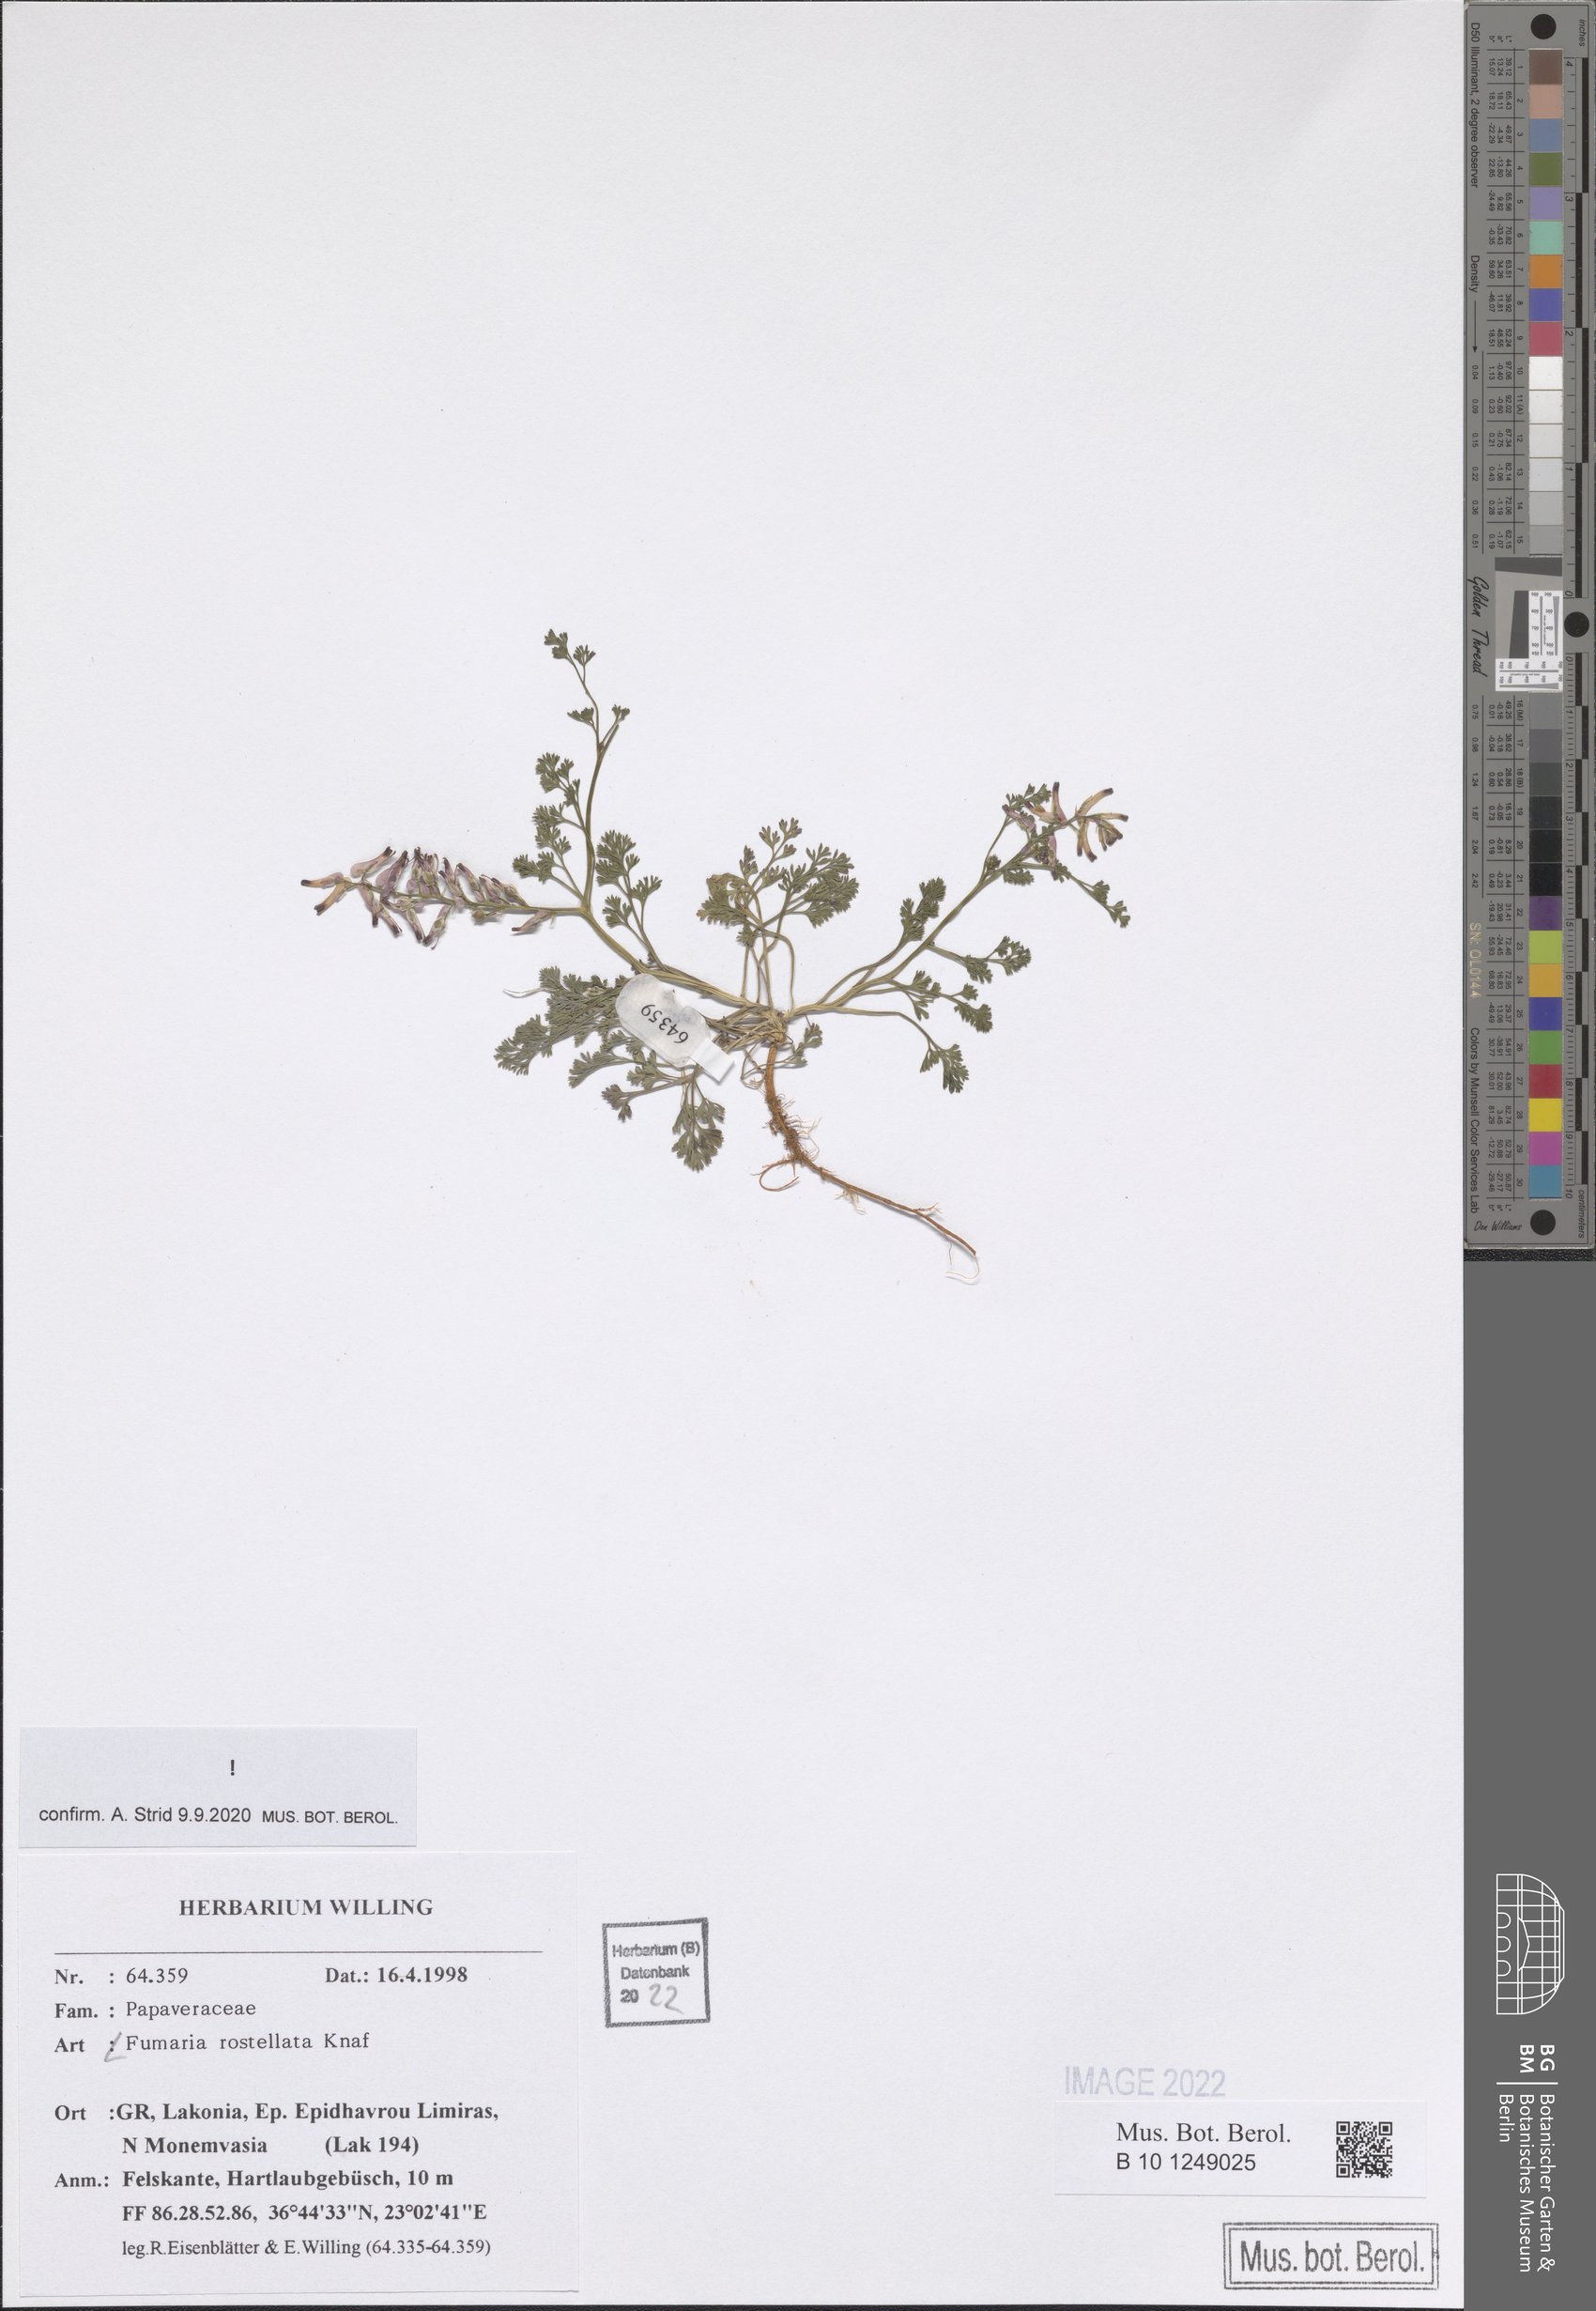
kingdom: Plantae
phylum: Tracheophyta
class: Magnoliopsida
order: Ranunculales
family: Papaveraceae
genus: Fumaria
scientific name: Fumaria rostellata
